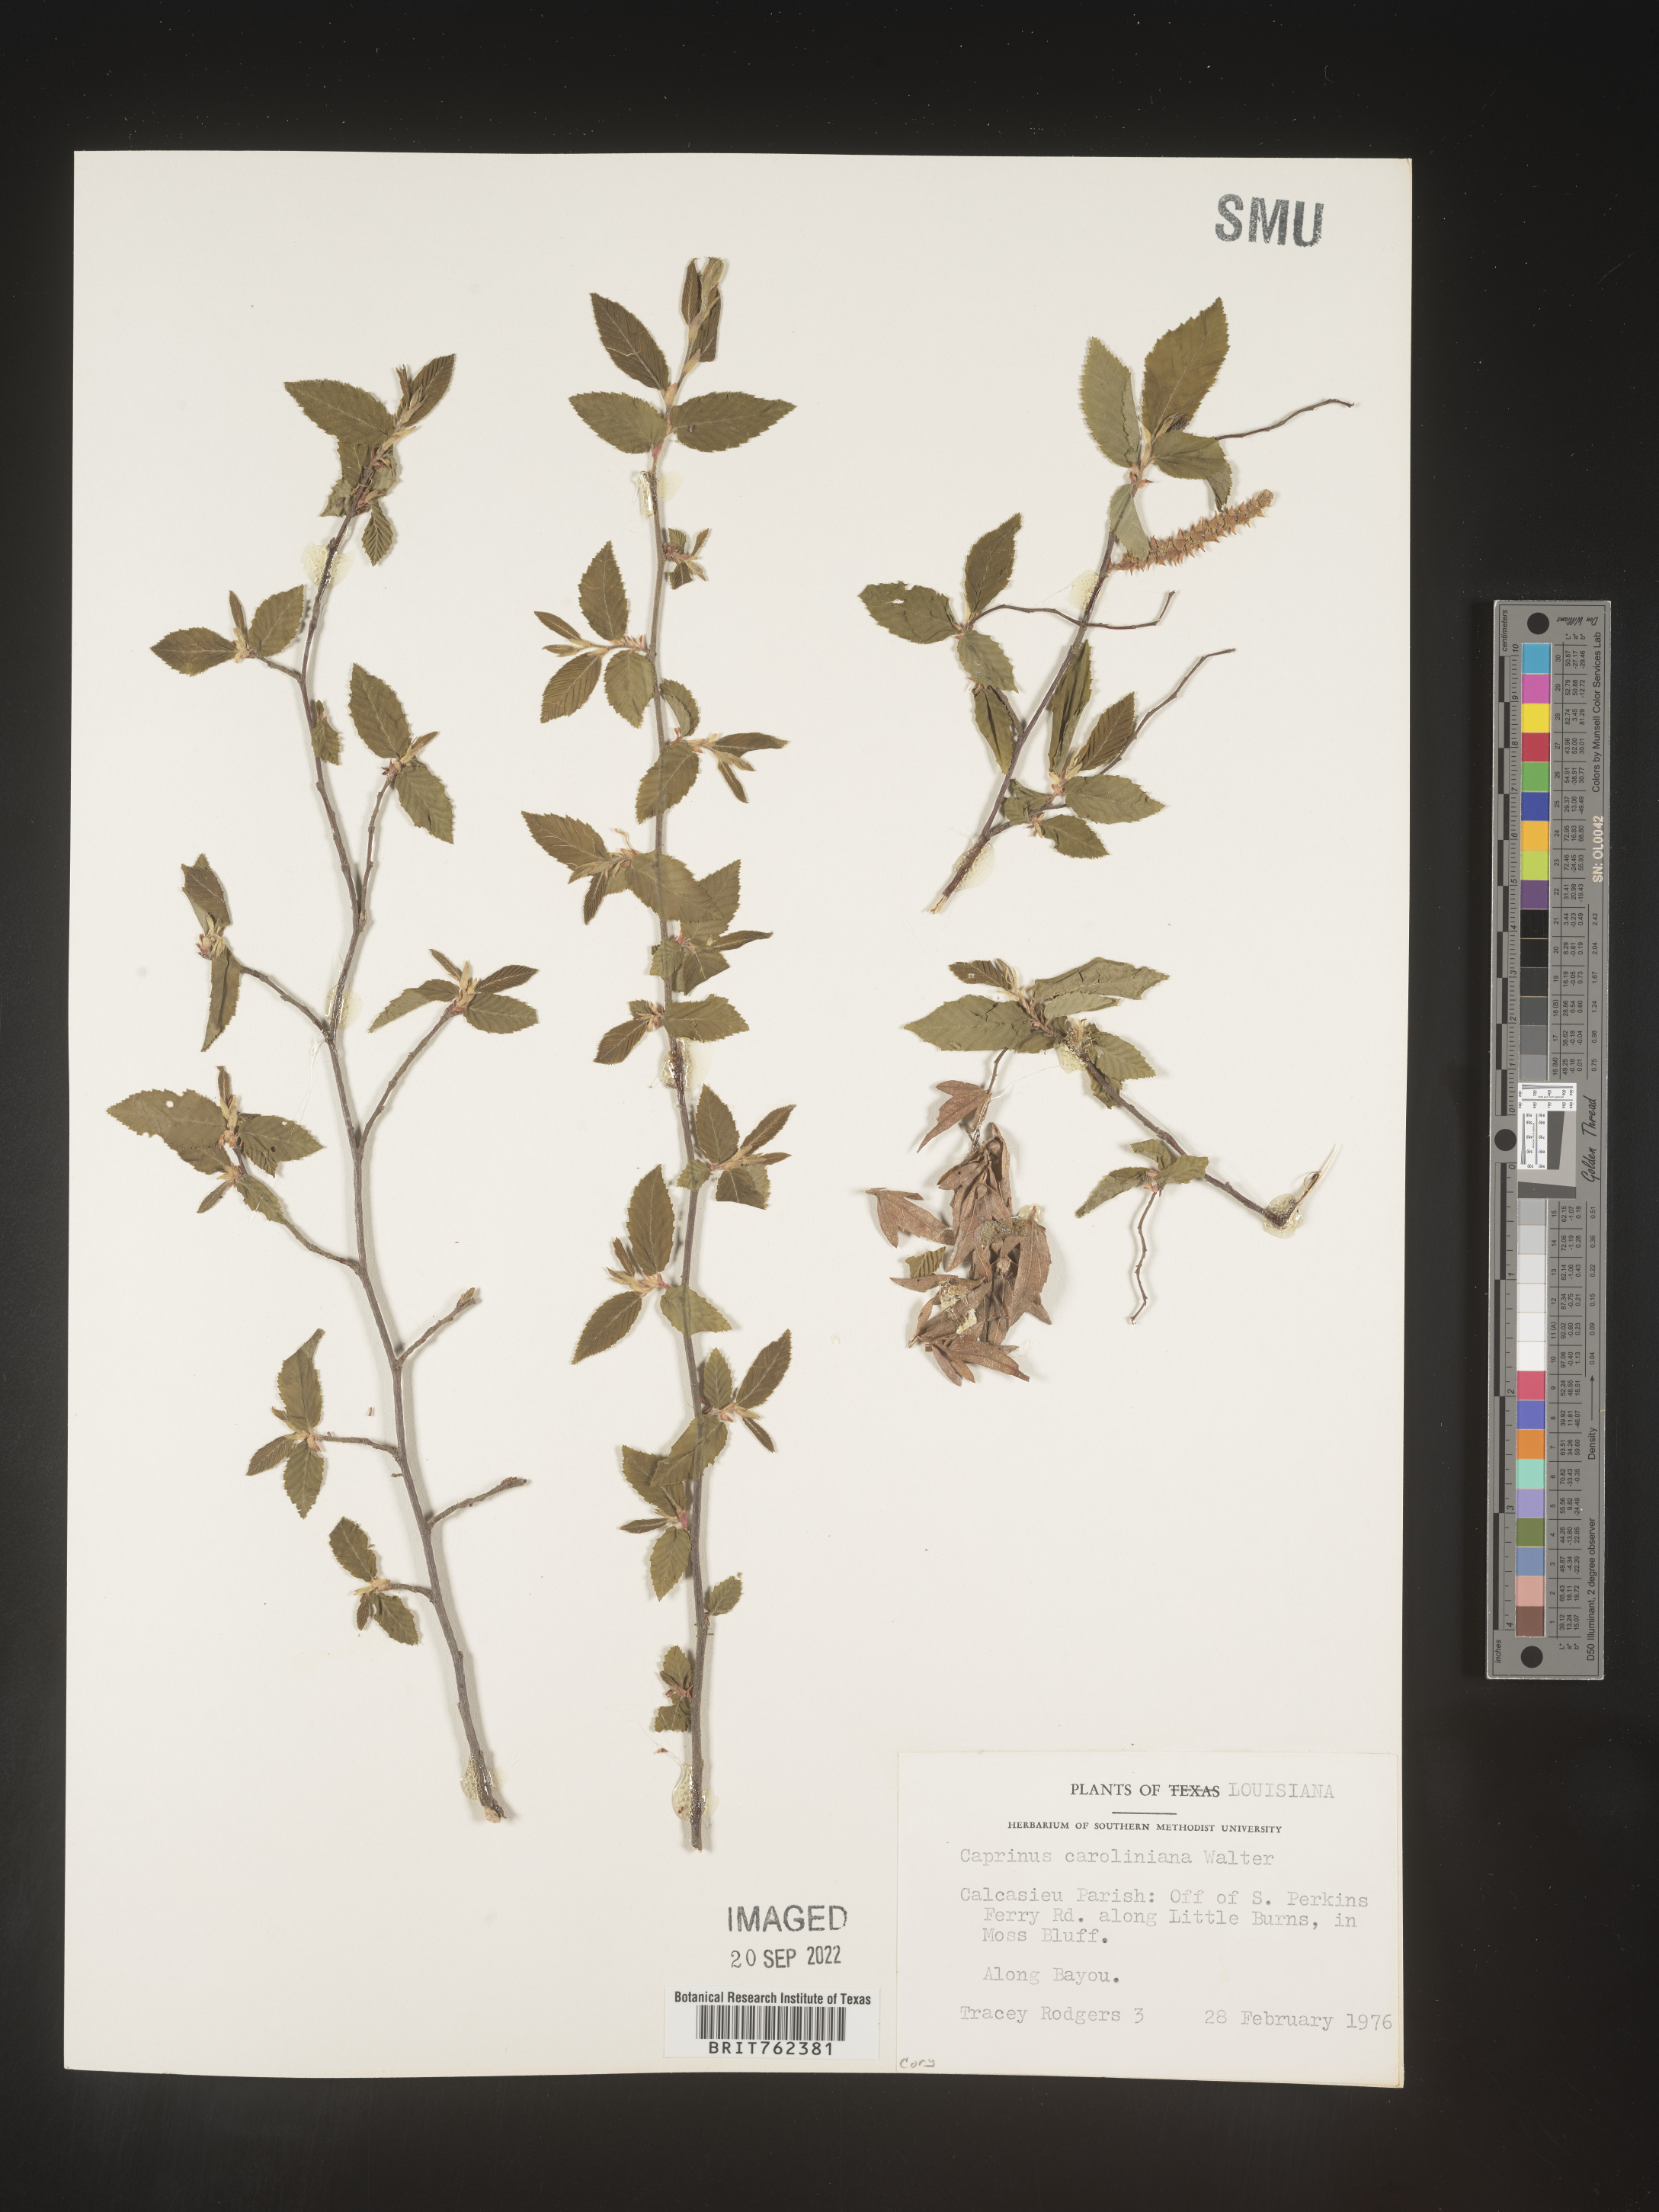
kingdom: Plantae
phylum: Tracheophyta
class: Magnoliopsida
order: Fagales
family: Betulaceae
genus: Carpinus
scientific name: Carpinus caroliniana
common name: American hornbeam
